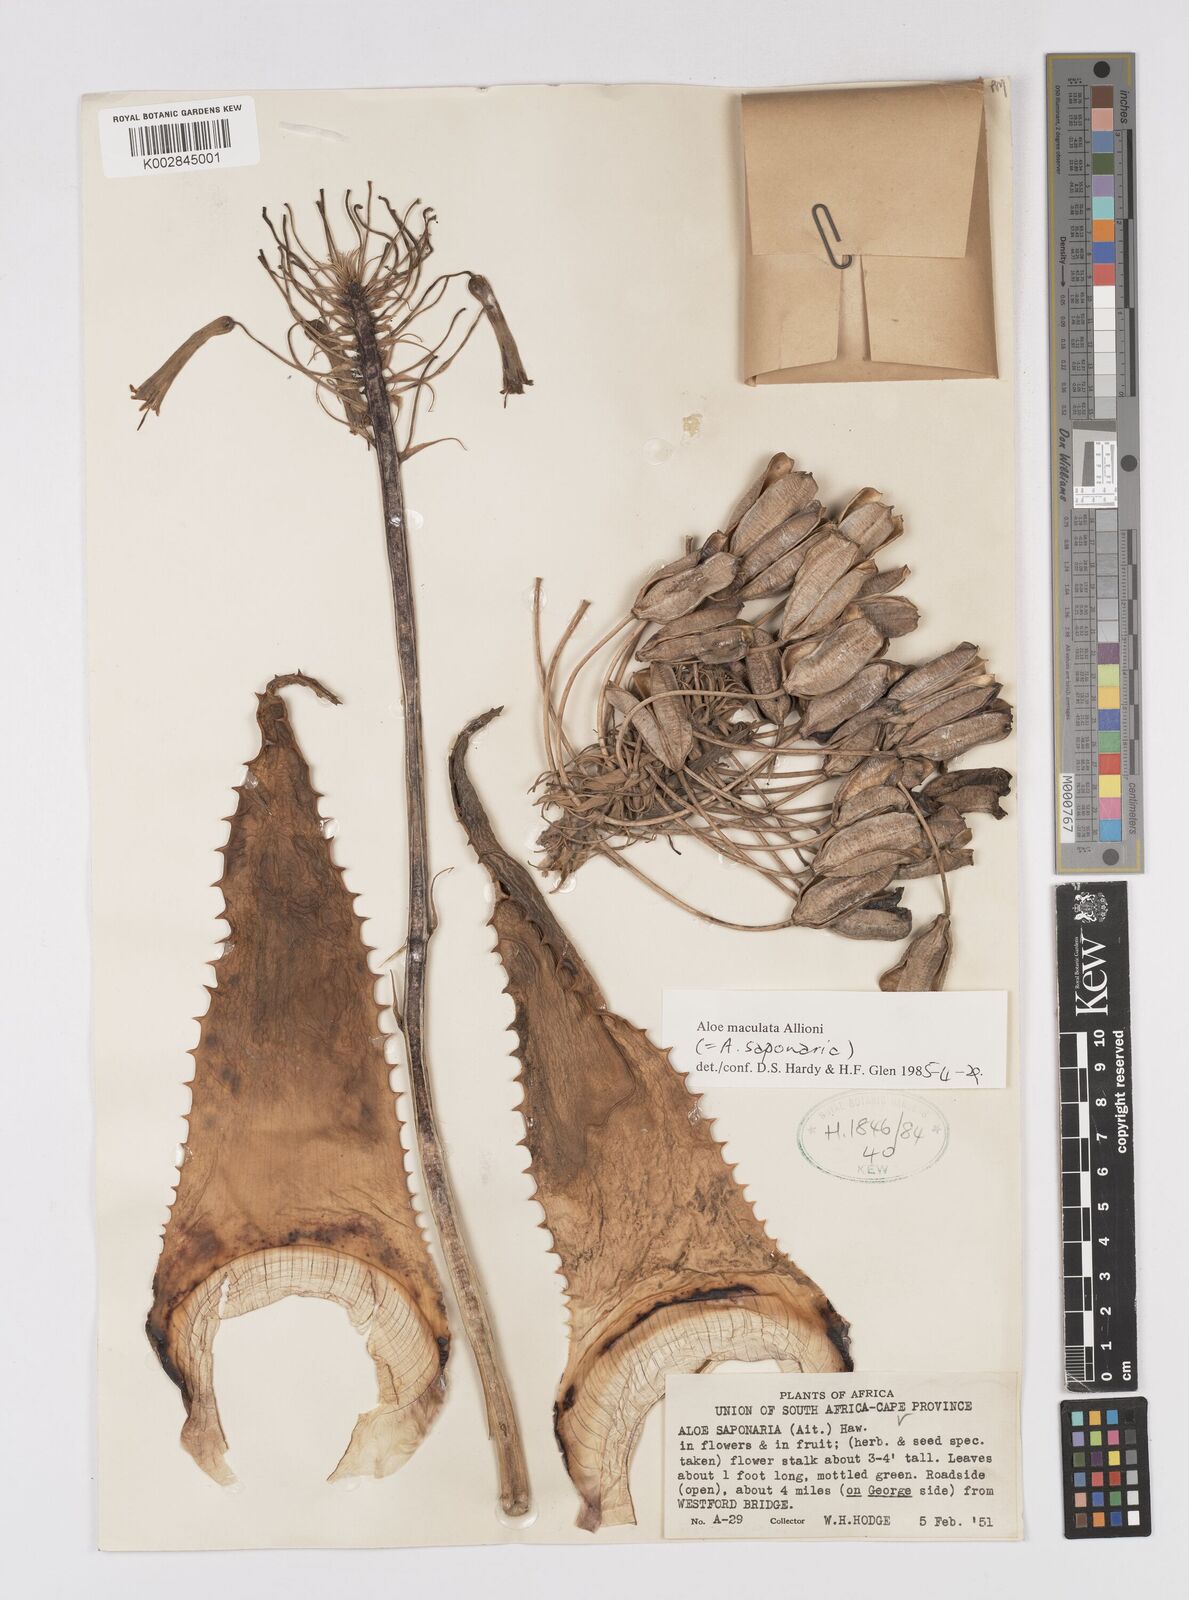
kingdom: Plantae
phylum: Tracheophyta
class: Liliopsida
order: Asparagales
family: Asphodelaceae
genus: Aloe
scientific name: Aloe microstigma
